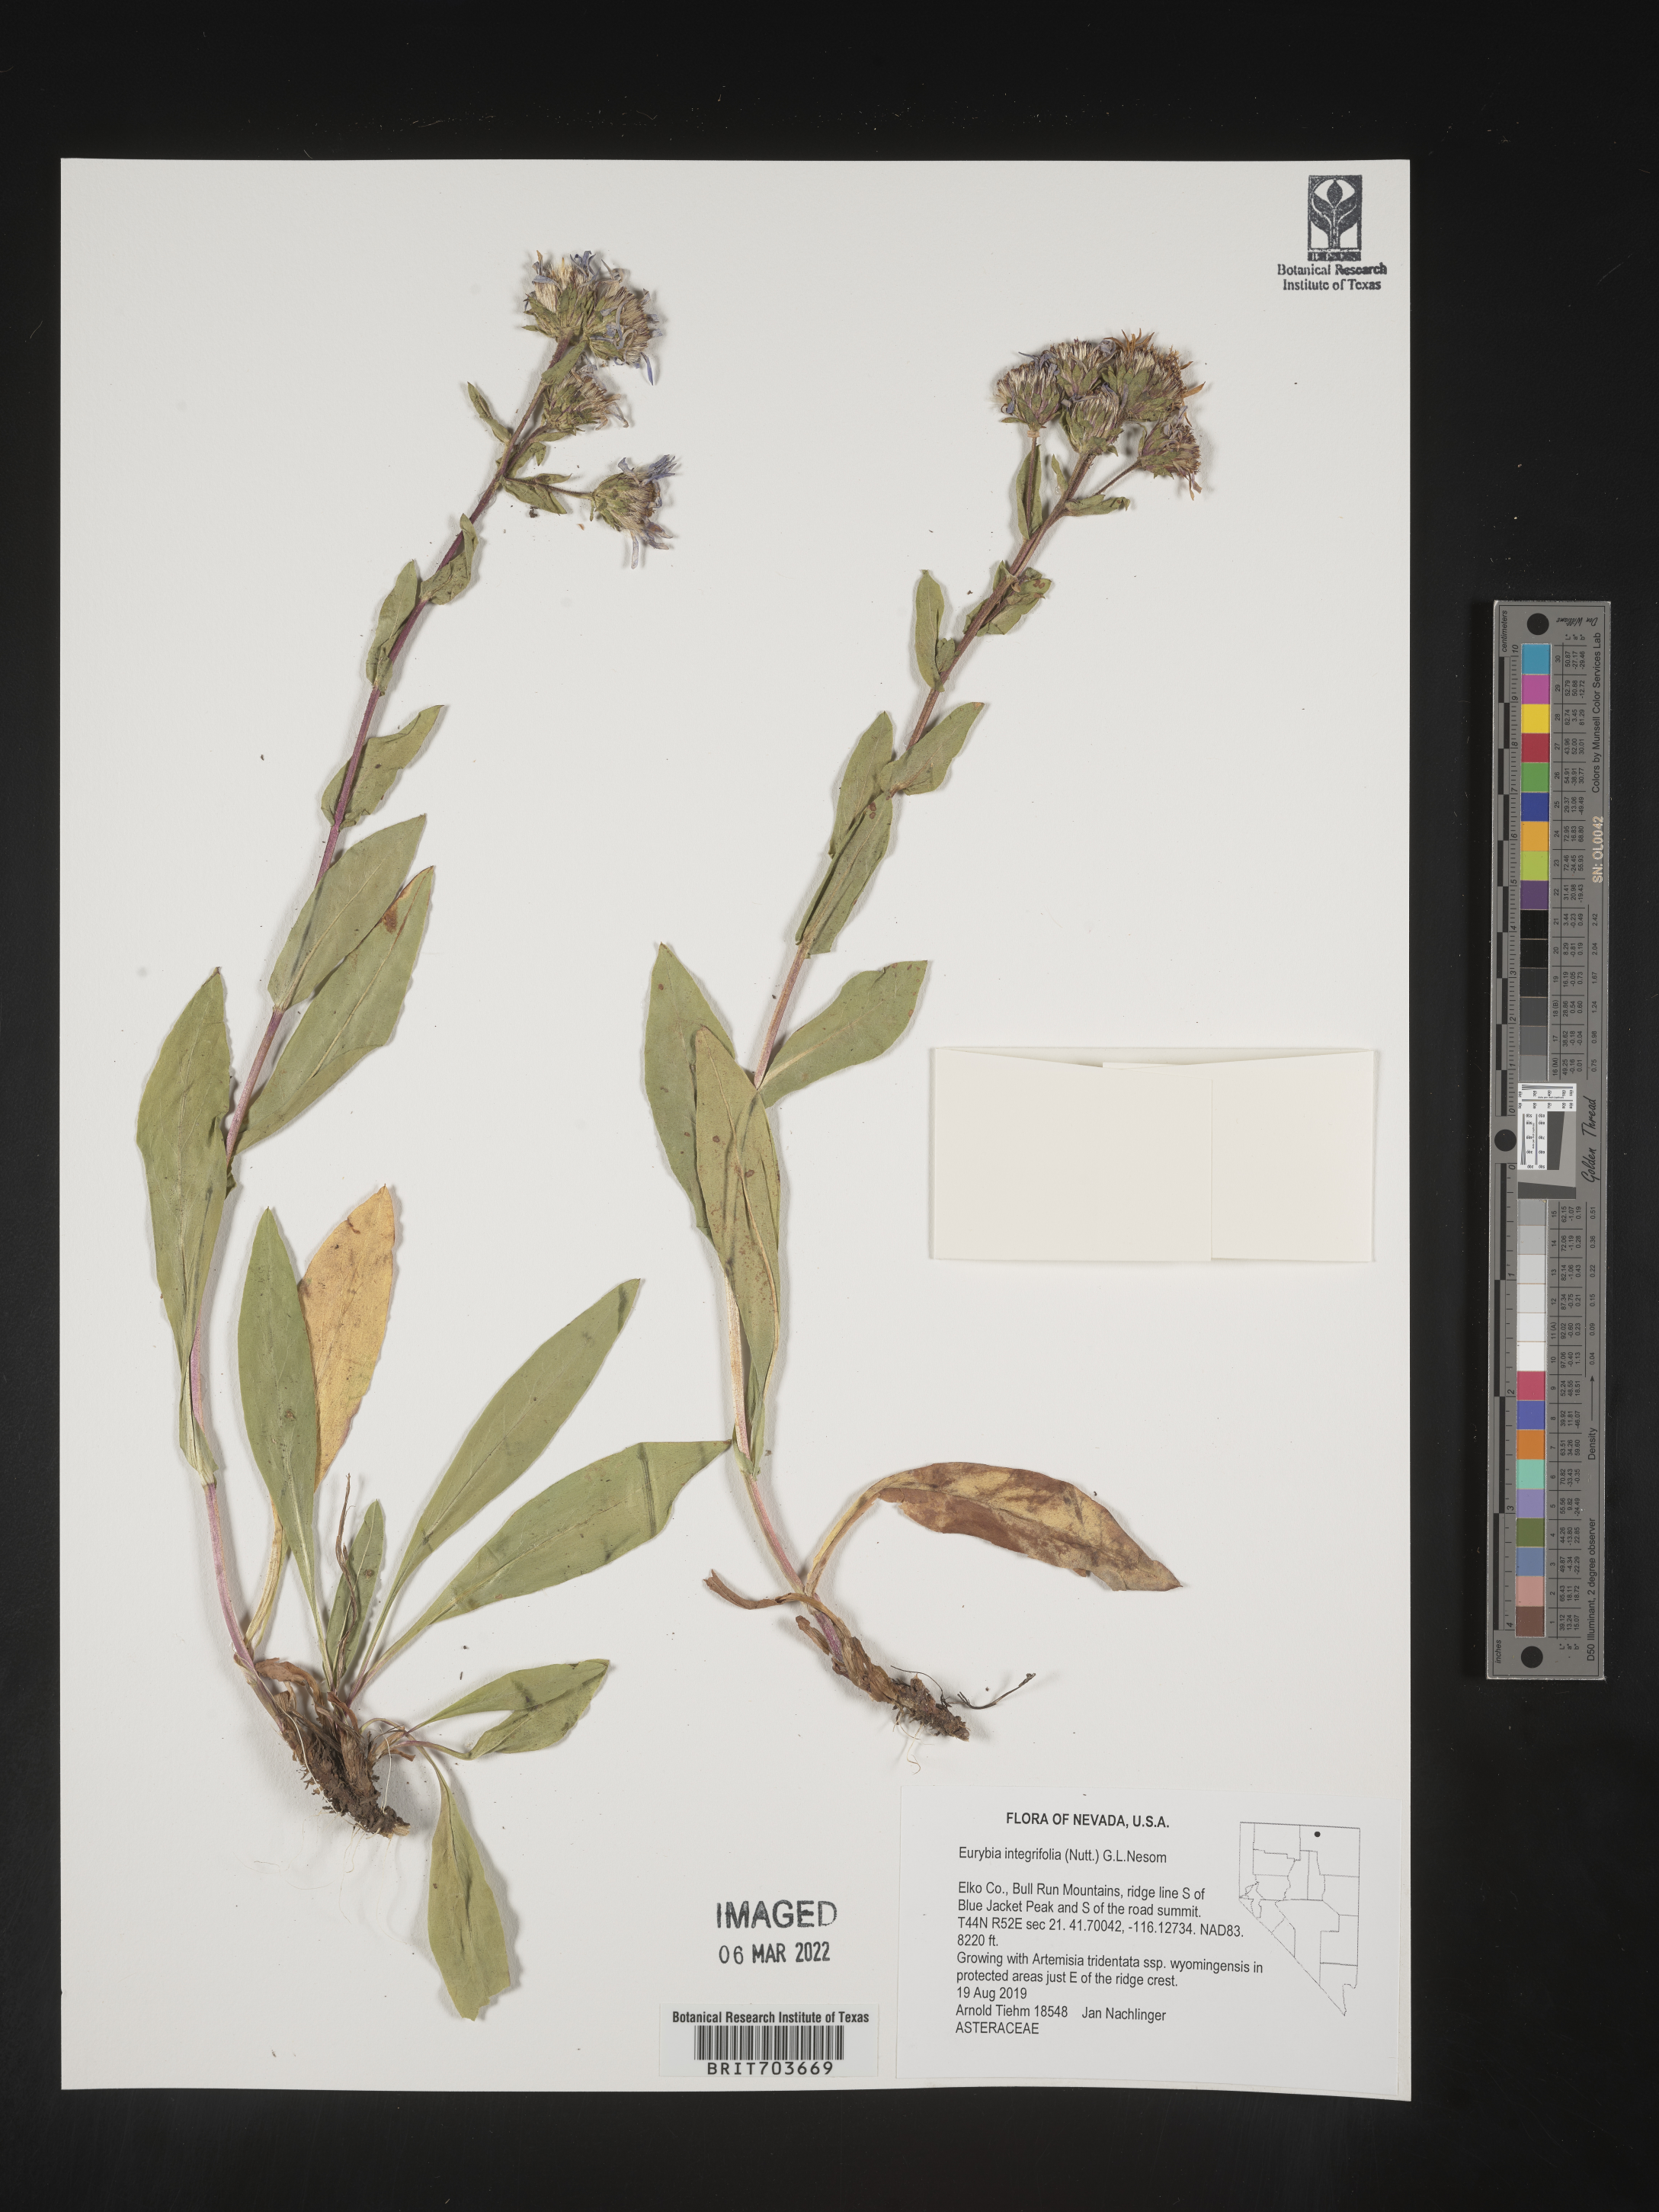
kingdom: Plantae
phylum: Tracheophyta
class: Magnoliopsida
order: Asterales
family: Asteraceae
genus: Eurybia
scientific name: Eurybia integrifolia
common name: Thick-stem aster
